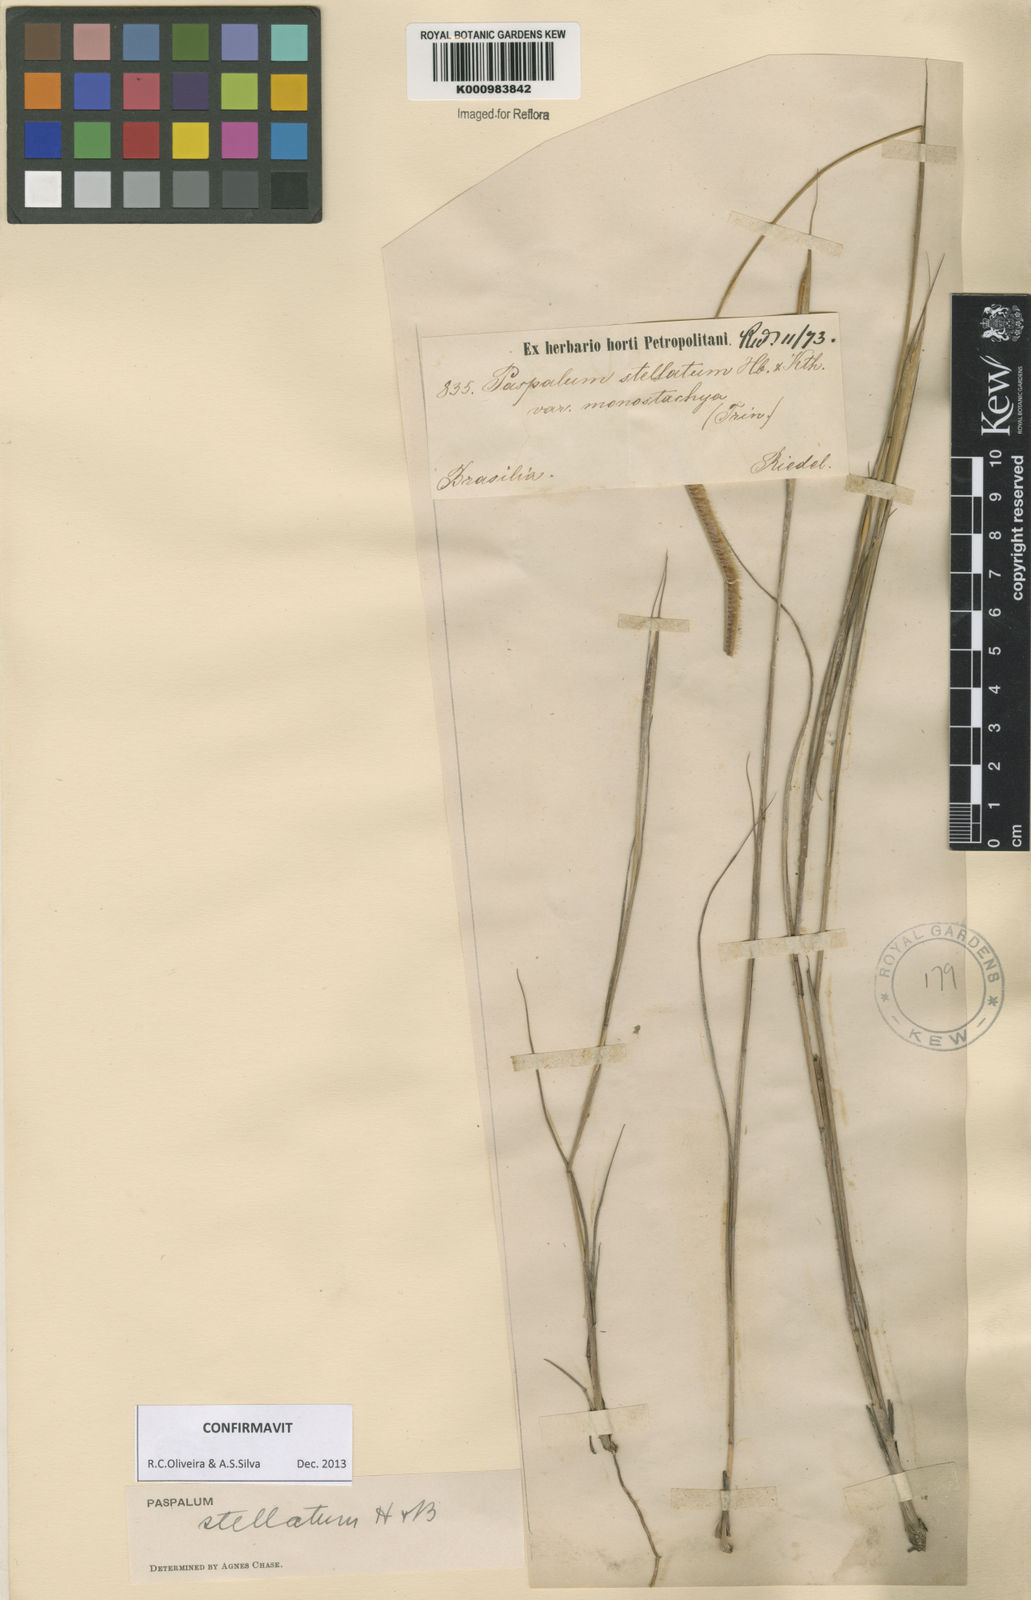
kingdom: Plantae
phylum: Tracheophyta
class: Liliopsida
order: Poales
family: Poaceae
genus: Paspalum
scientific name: Paspalum
